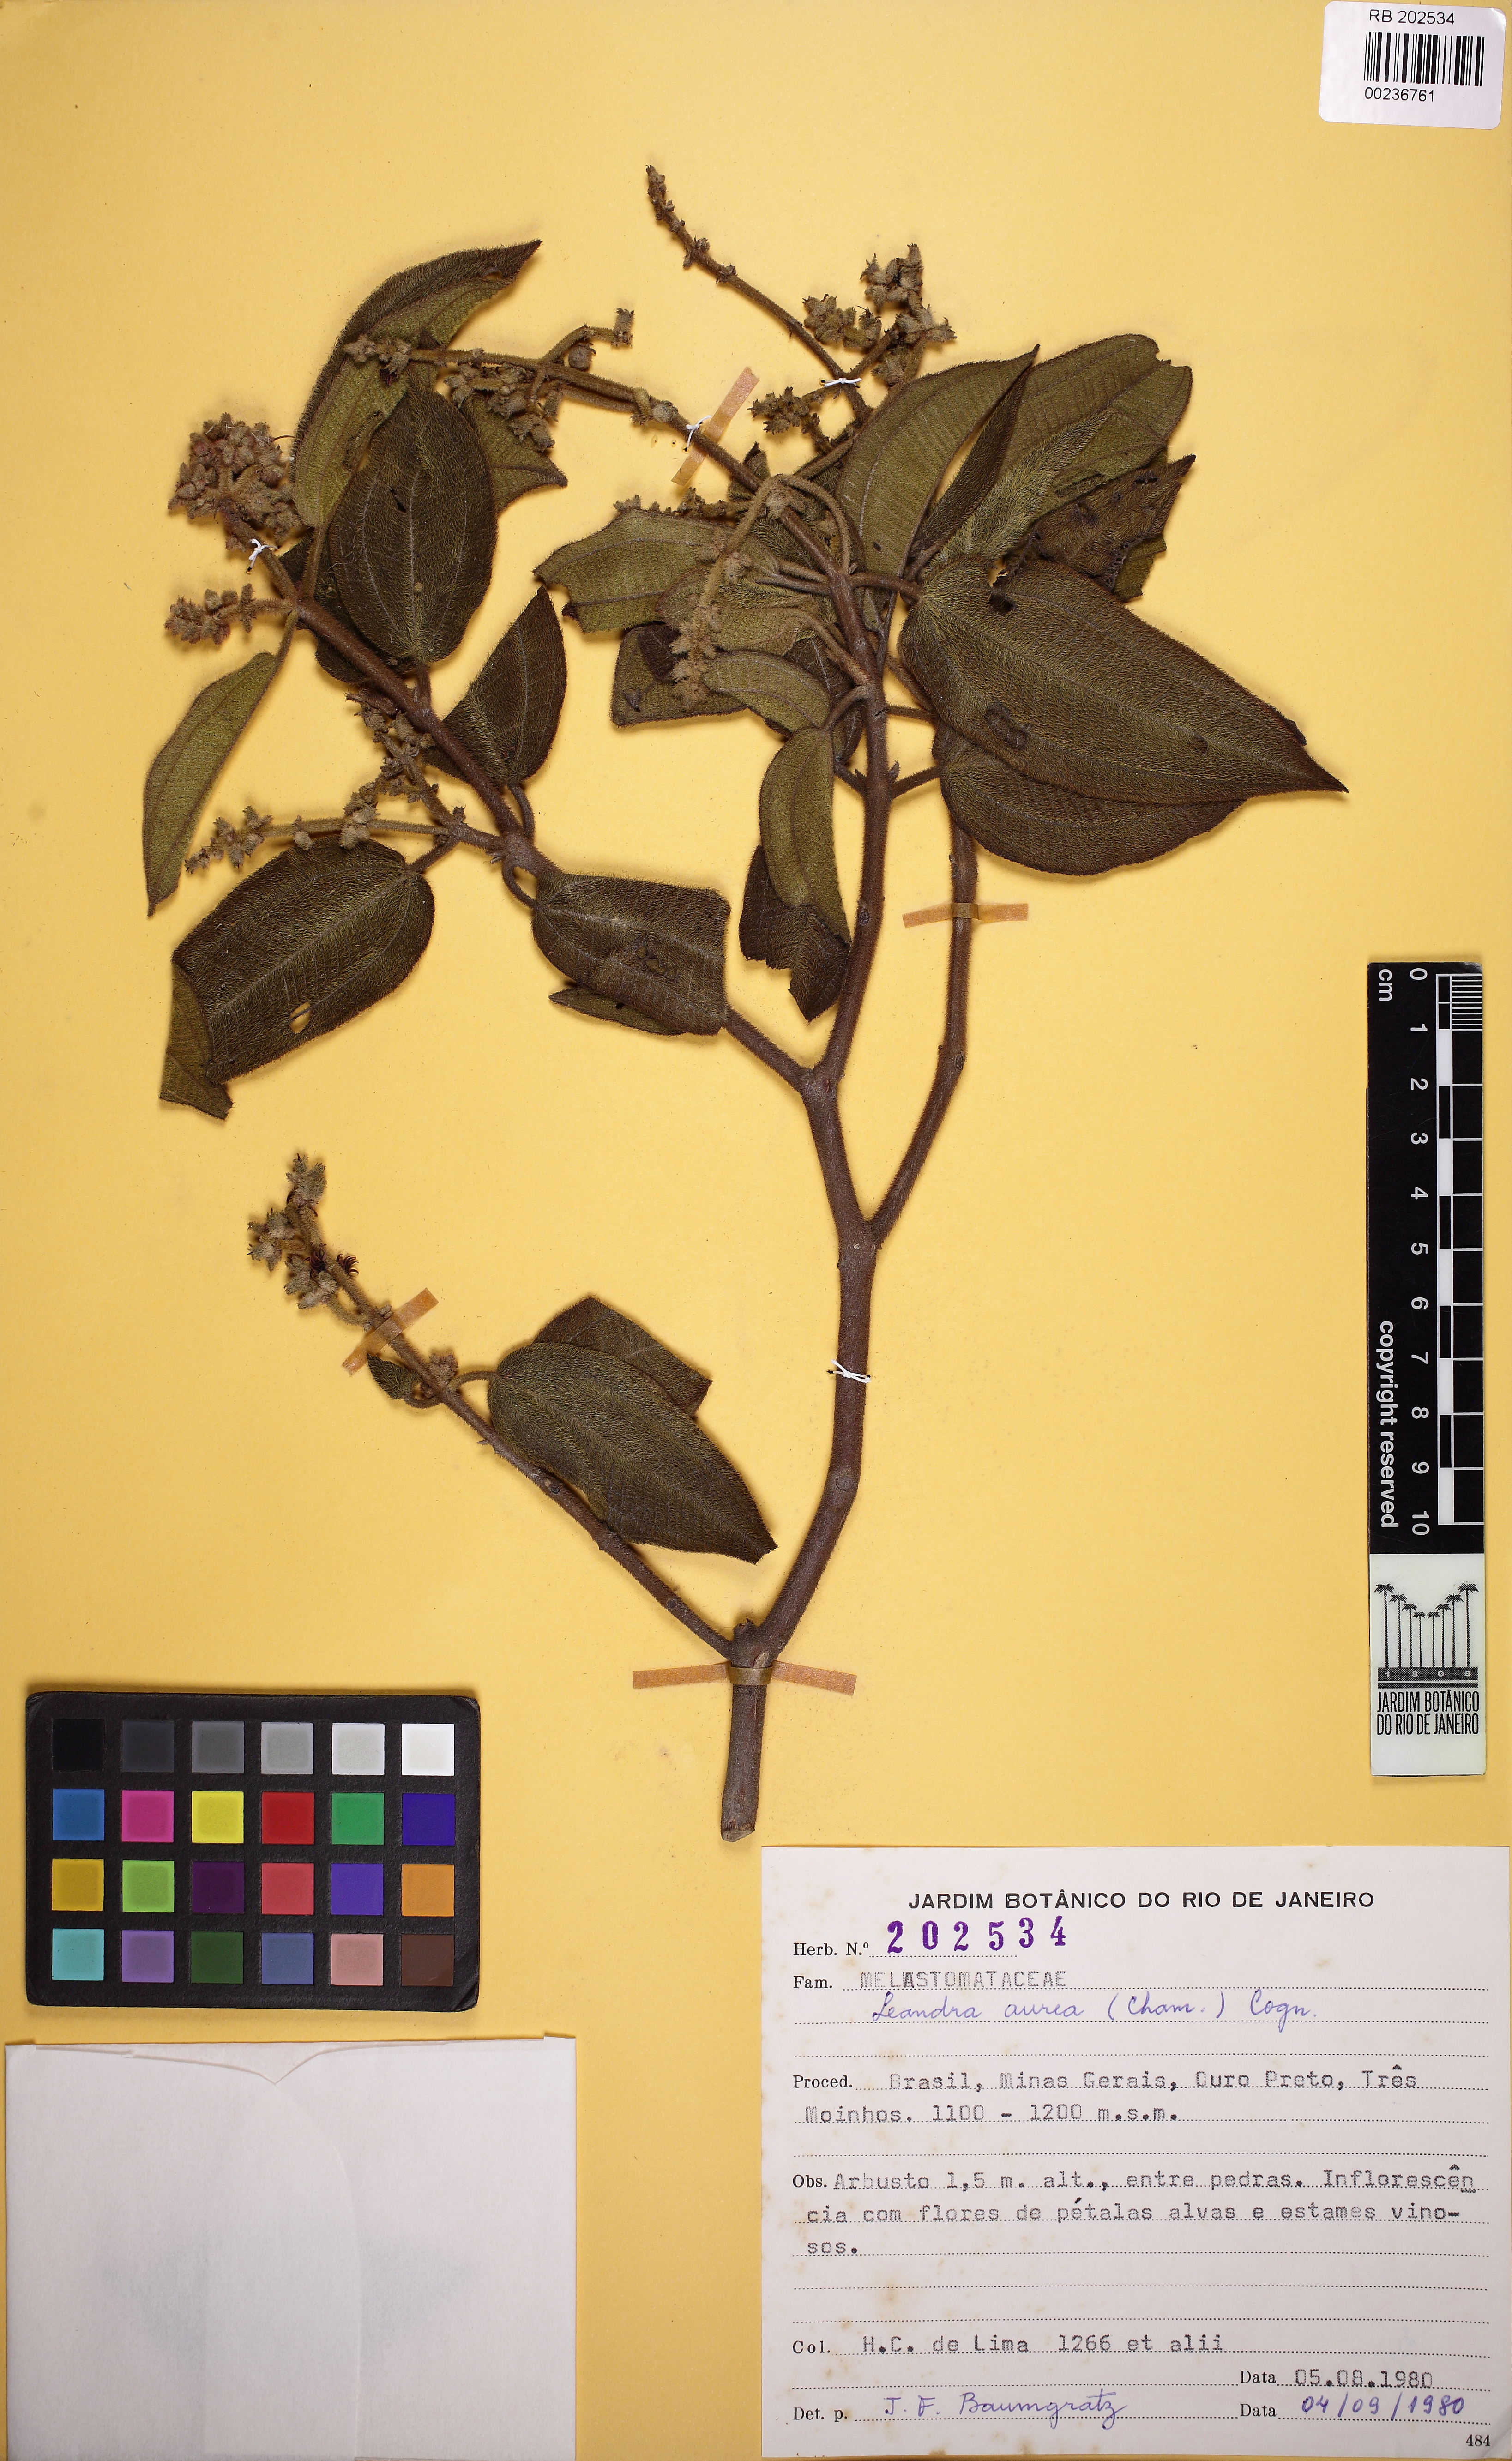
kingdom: Plantae
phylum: Tracheophyta
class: Magnoliopsida
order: Myrtales
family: Melastomataceae
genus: Miconia
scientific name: Miconia auricoma
